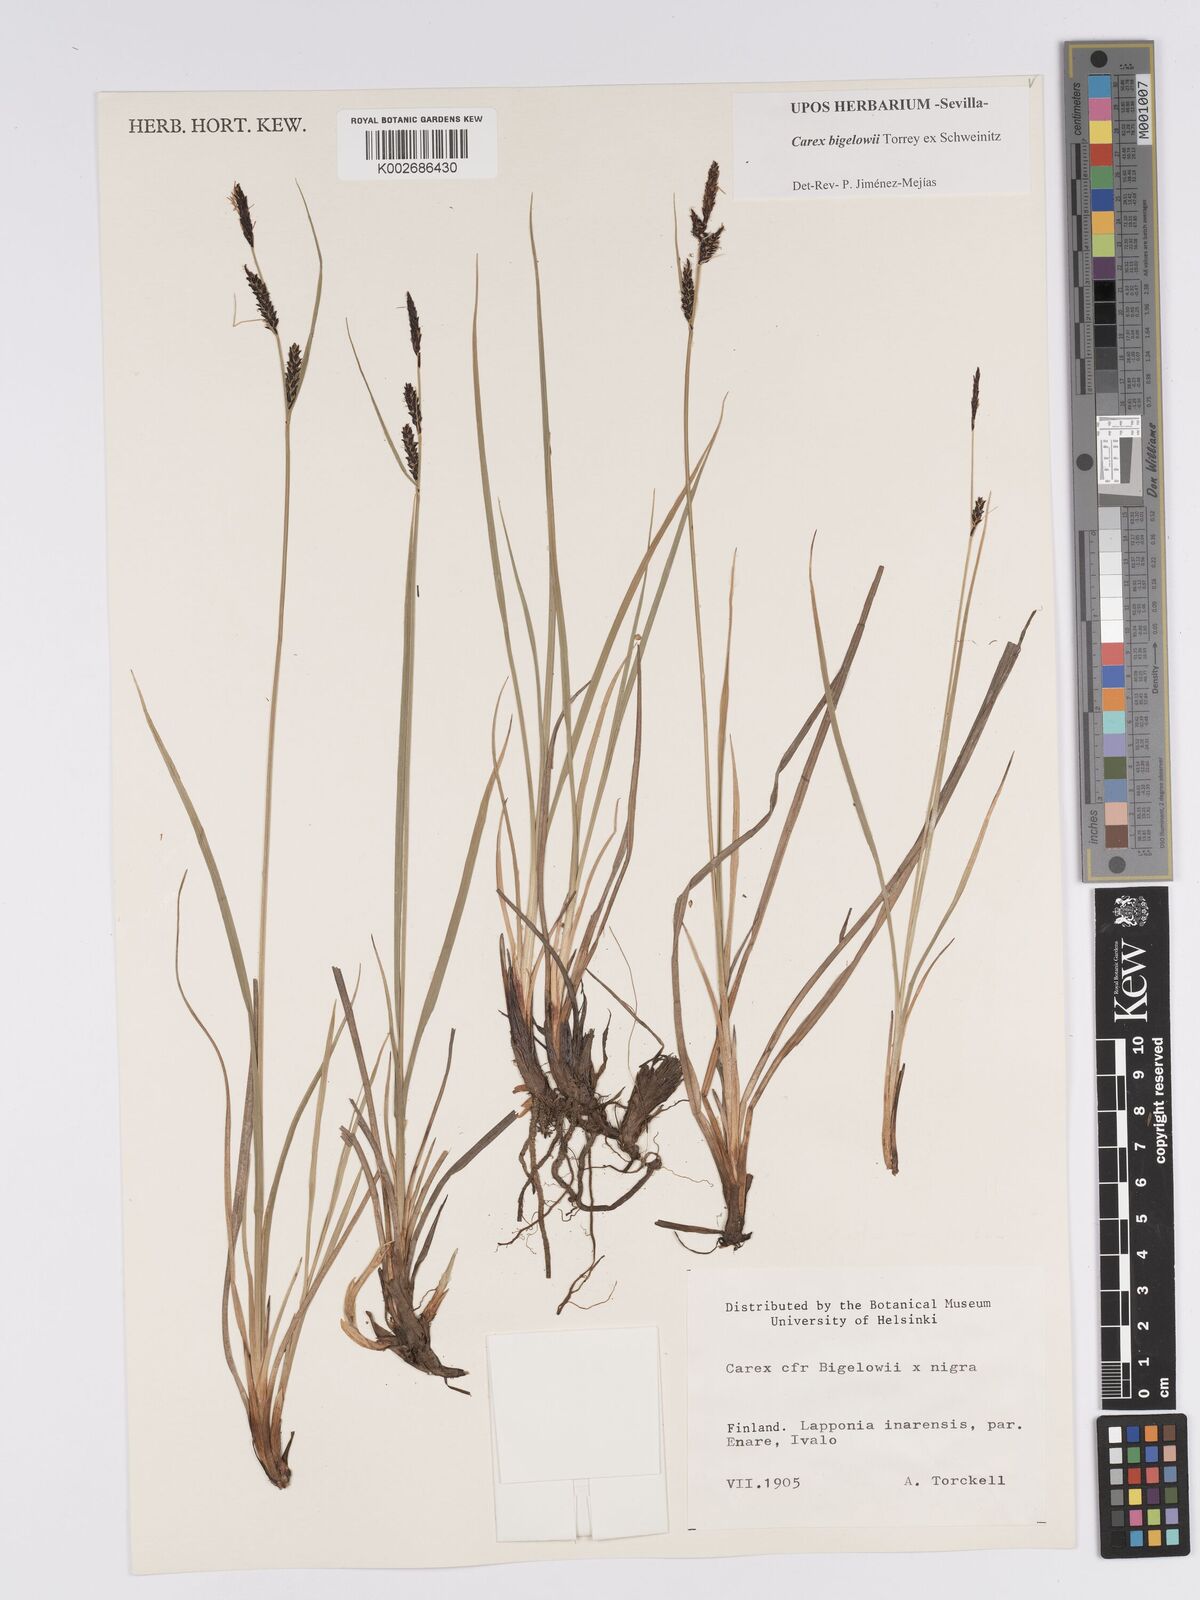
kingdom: Plantae
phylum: Tracheophyta
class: Liliopsida
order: Poales
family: Cyperaceae
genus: Carex
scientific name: Carex bigelowii
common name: Stiff sedge
